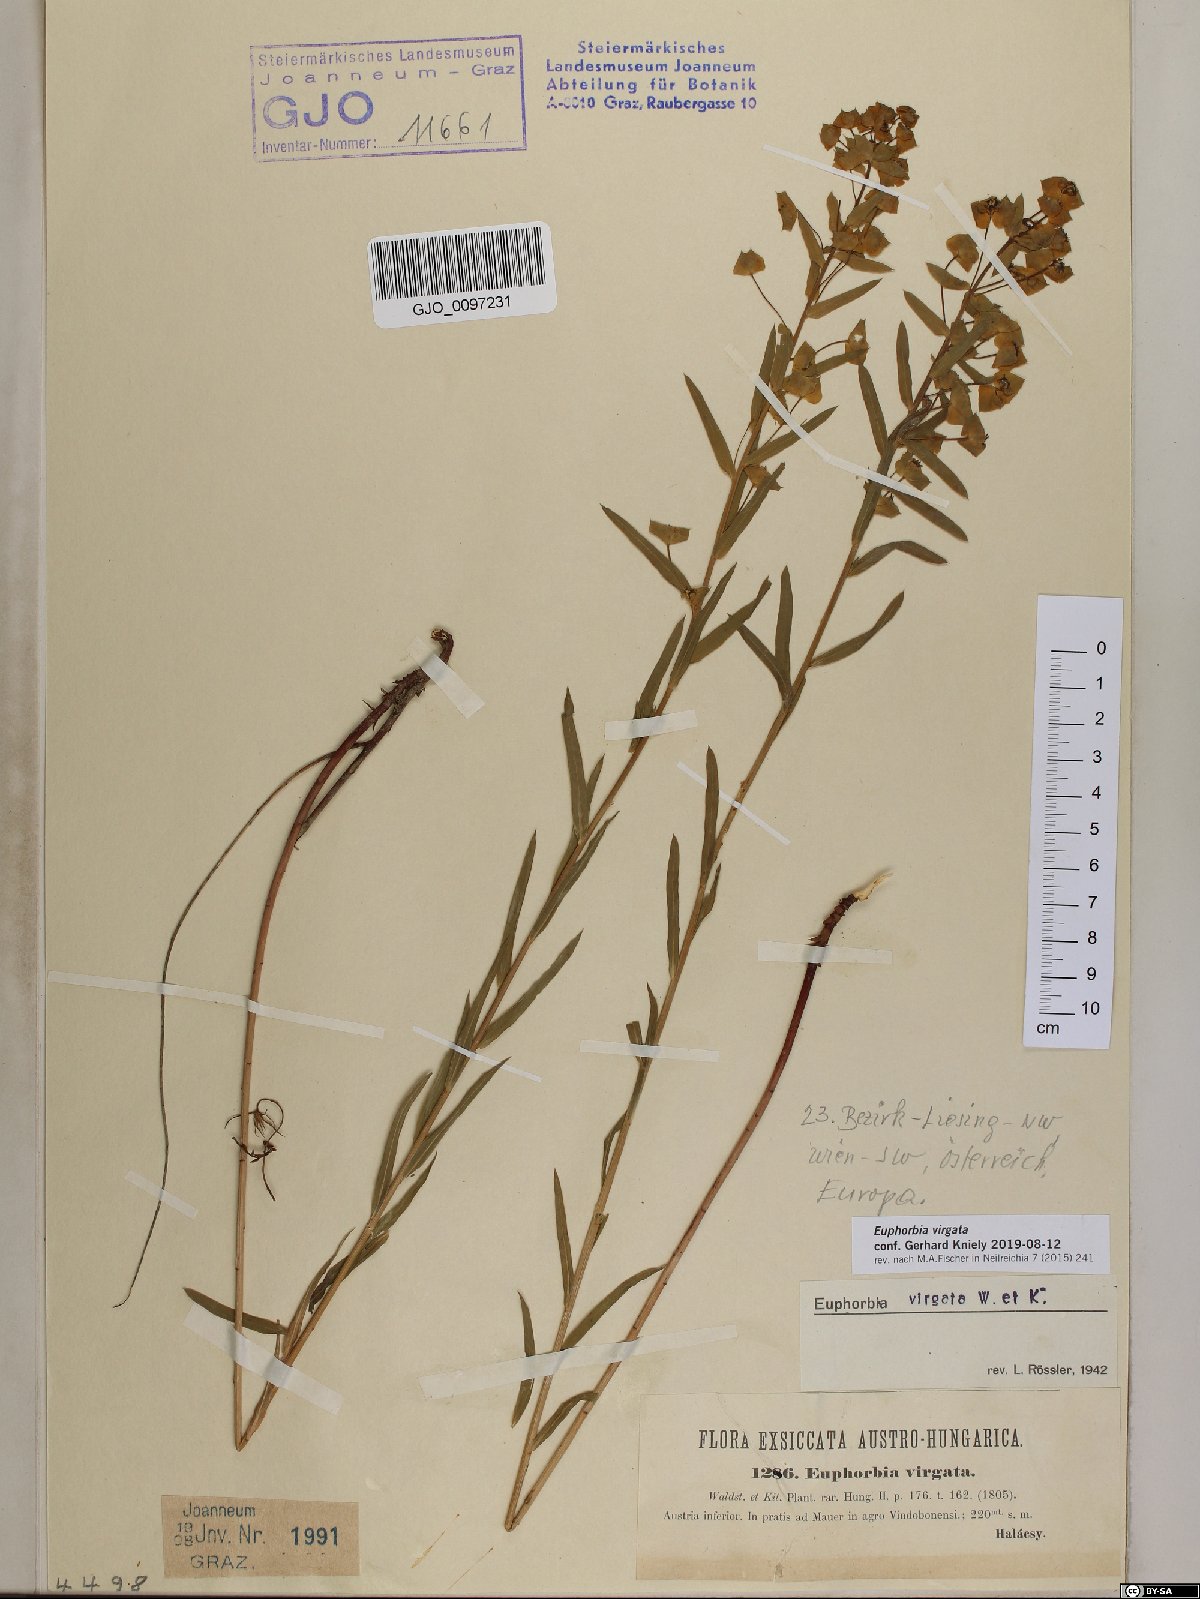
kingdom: Plantae
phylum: Tracheophyta
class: Magnoliopsida
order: Malpighiales
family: Euphorbiaceae
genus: Euphorbia
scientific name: Euphorbia virgata
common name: Leafy spurge
